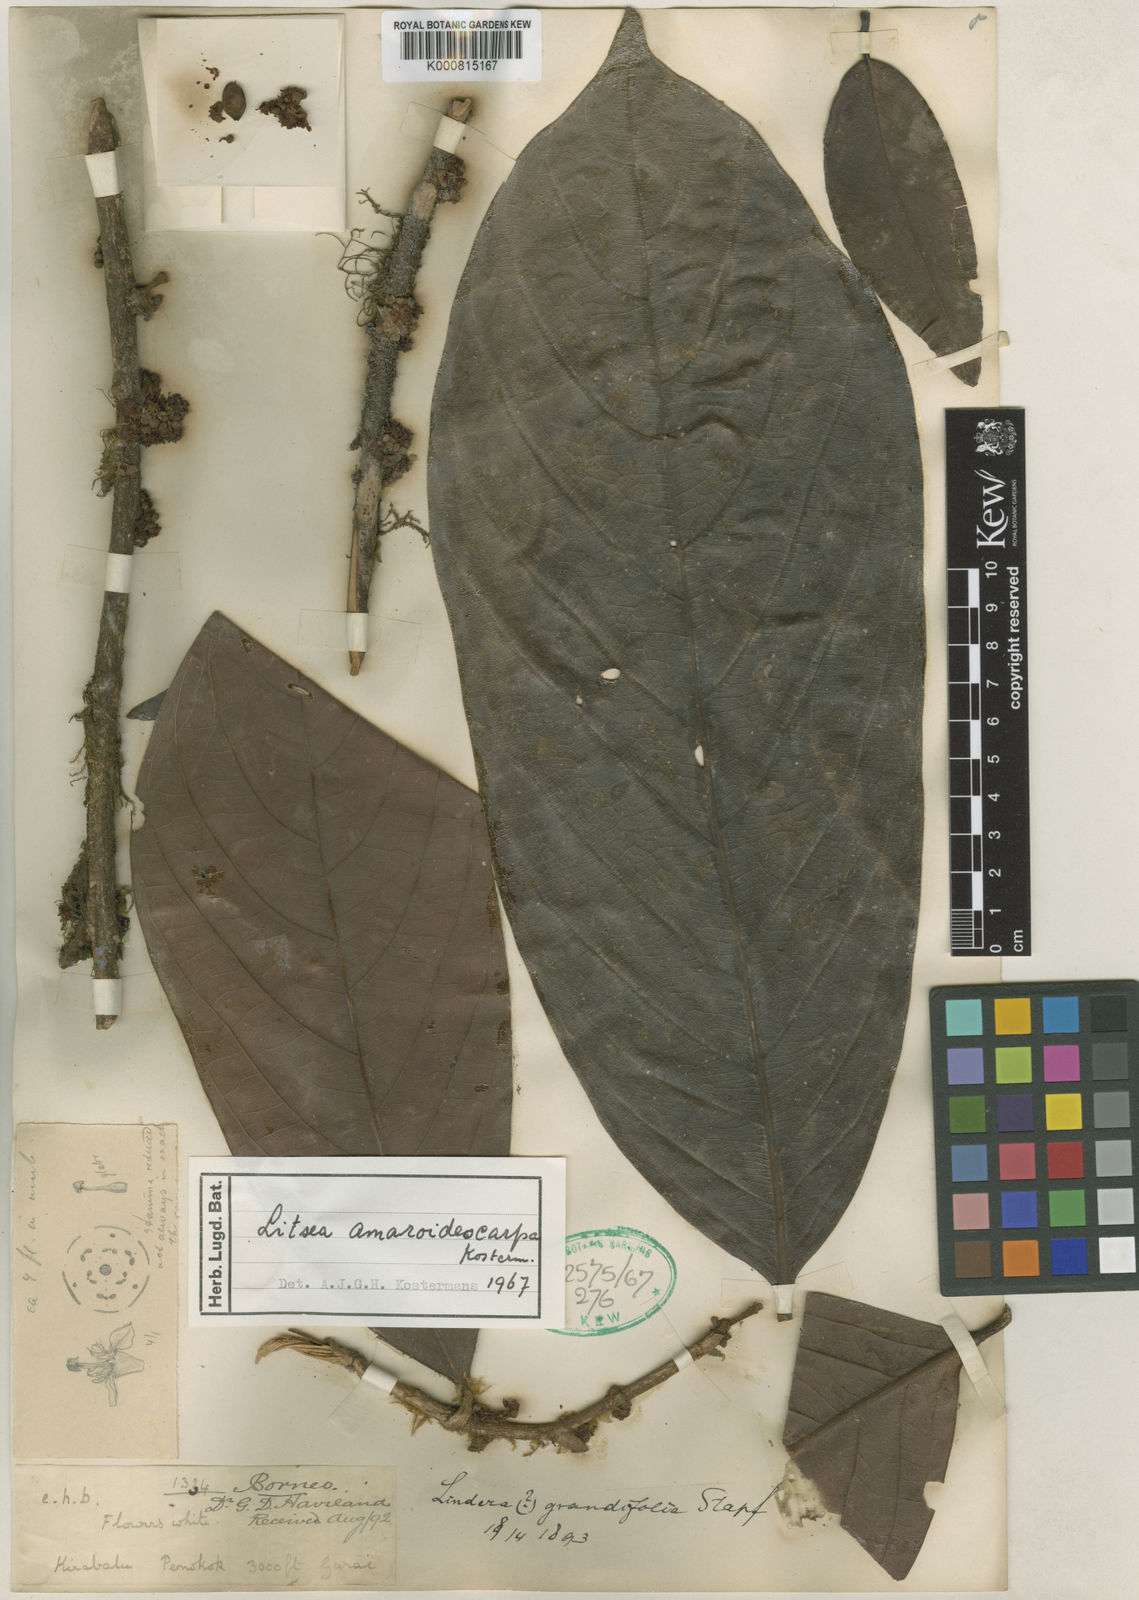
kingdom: Plantae
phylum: Tracheophyta
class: Magnoliopsida
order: Laurales
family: Lauraceae
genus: Lindera
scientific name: Lindera megaphylla
